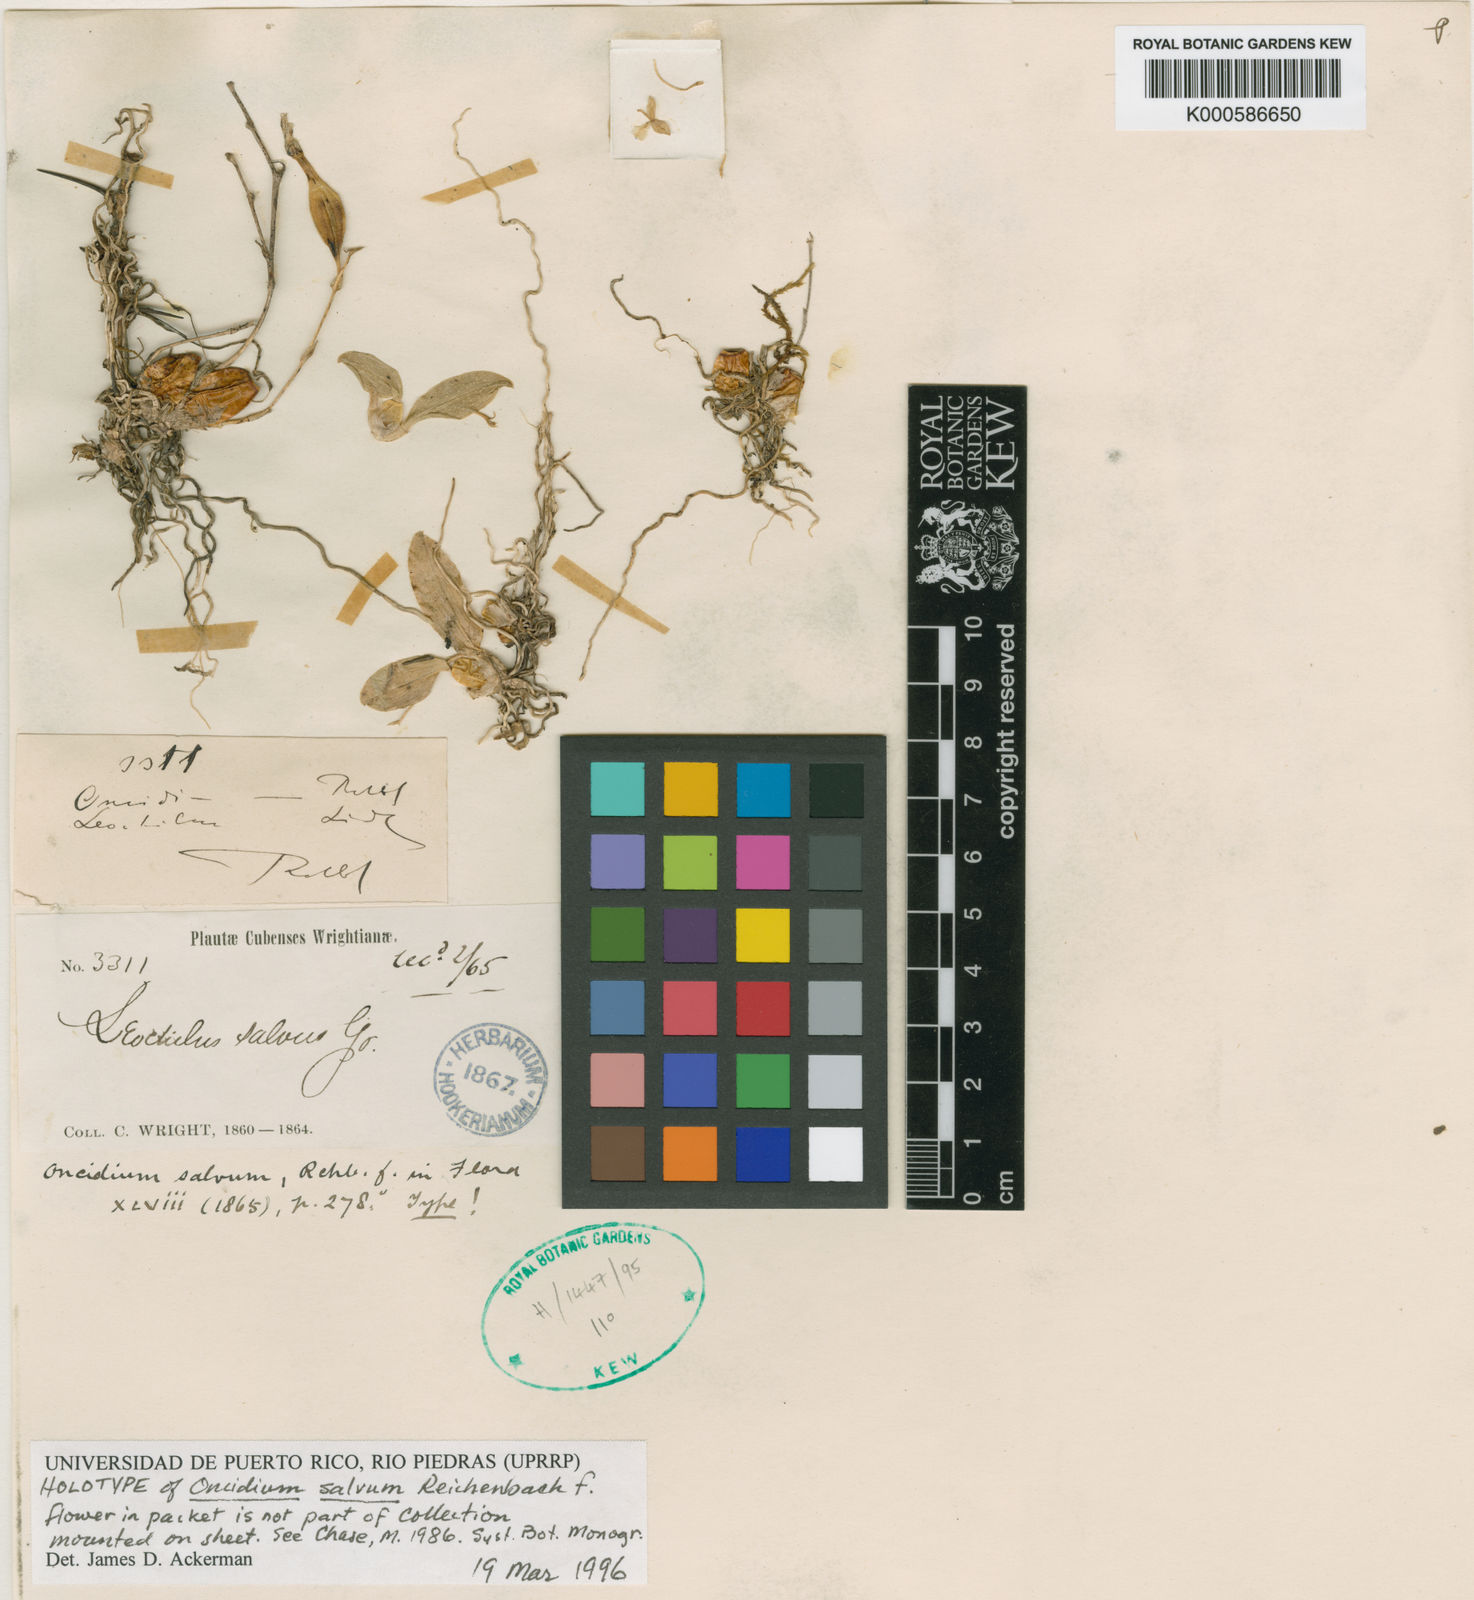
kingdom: Plantae
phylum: Tracheophyta
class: Liliopsida
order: Asparagales
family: Orchidaceae
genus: Leochilus
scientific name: Leochilus labiatus
